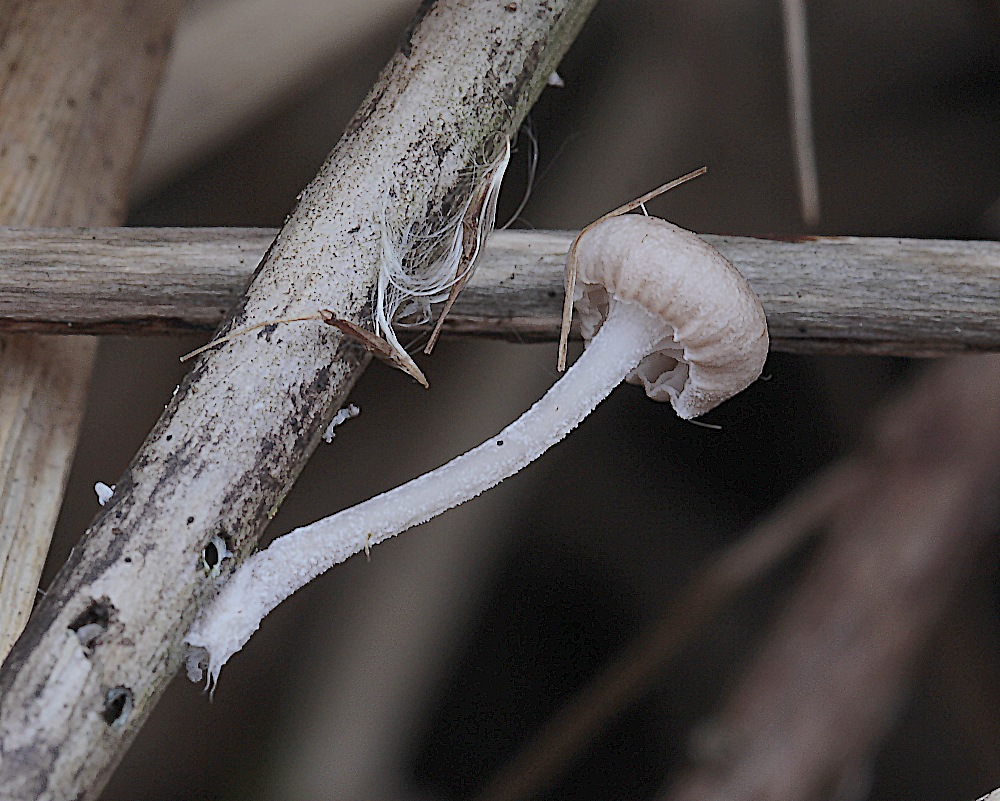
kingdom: Fungi
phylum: Basidiomycota
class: Agaricomycetes
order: Agaricales
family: Mycenaceae
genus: Mycena
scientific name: Mycena belliae
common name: tagrørs-huesvamp
